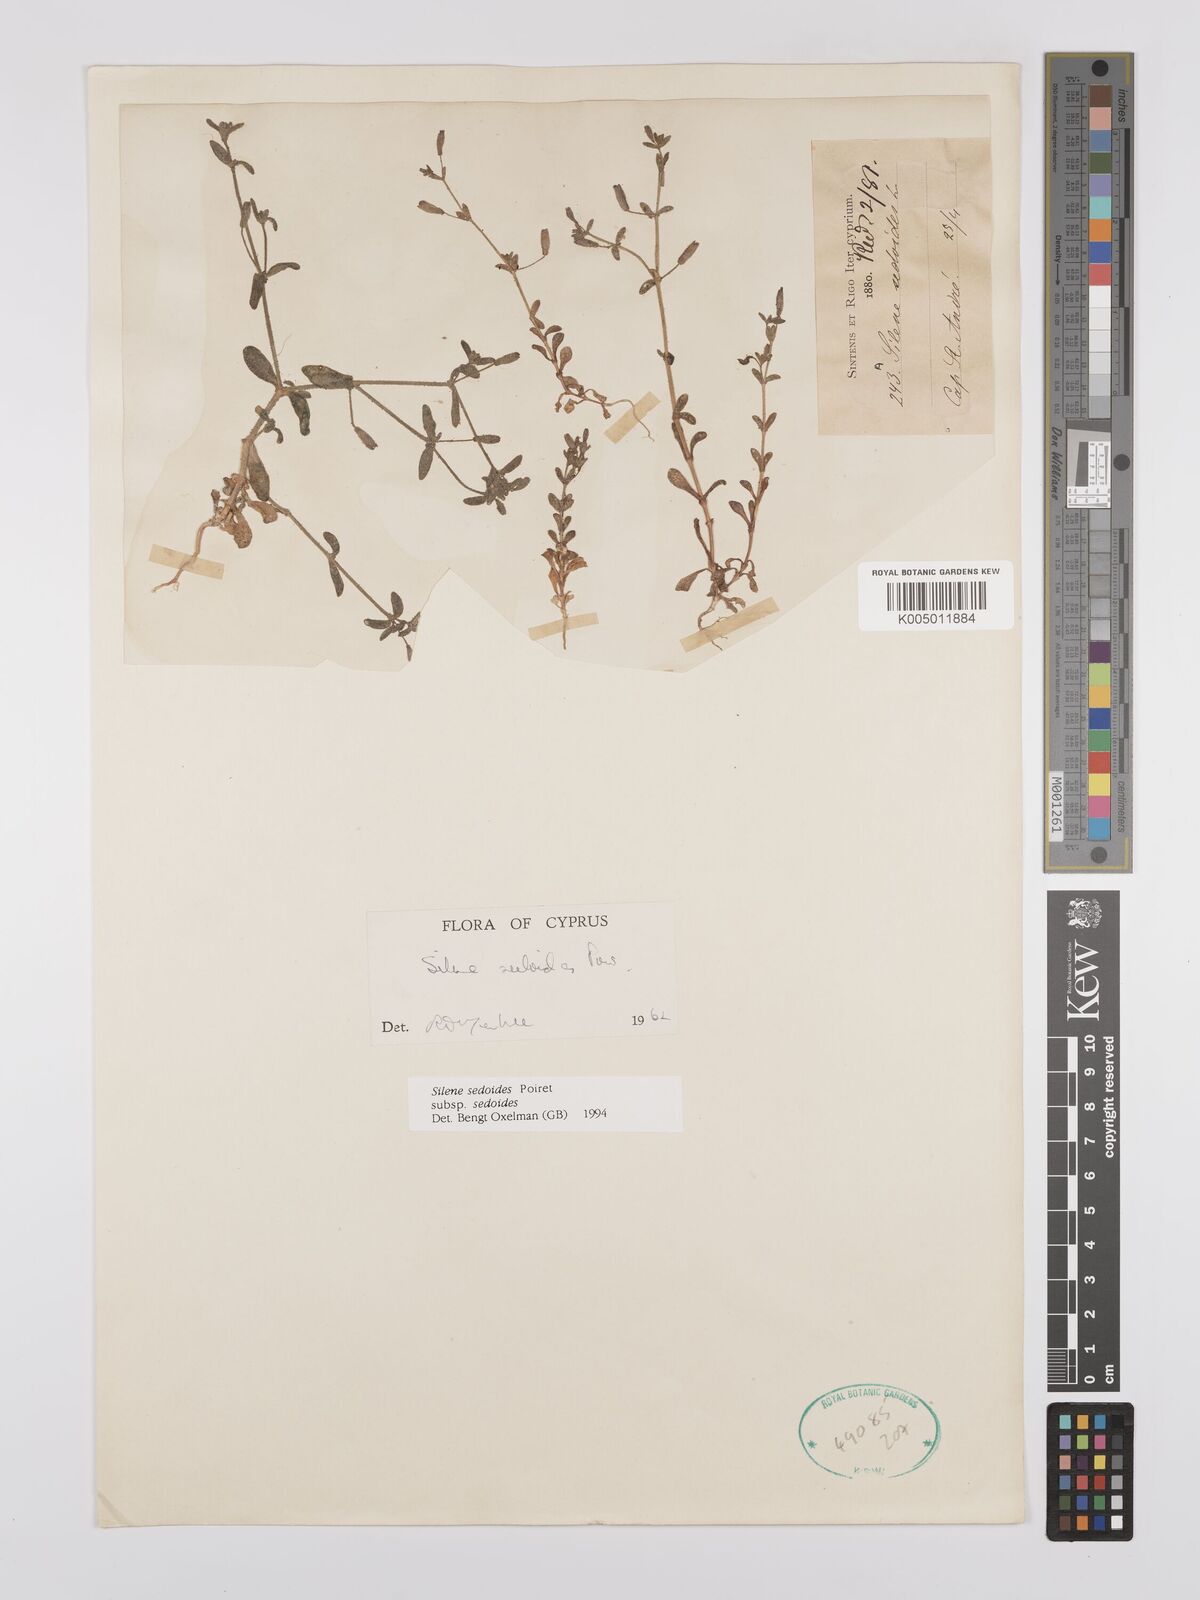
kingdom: Plantae
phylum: Tracheophyta
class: Magnoliopsida
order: Caryophyllales
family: Caryophyllaceae
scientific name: Caryophyllaceae
